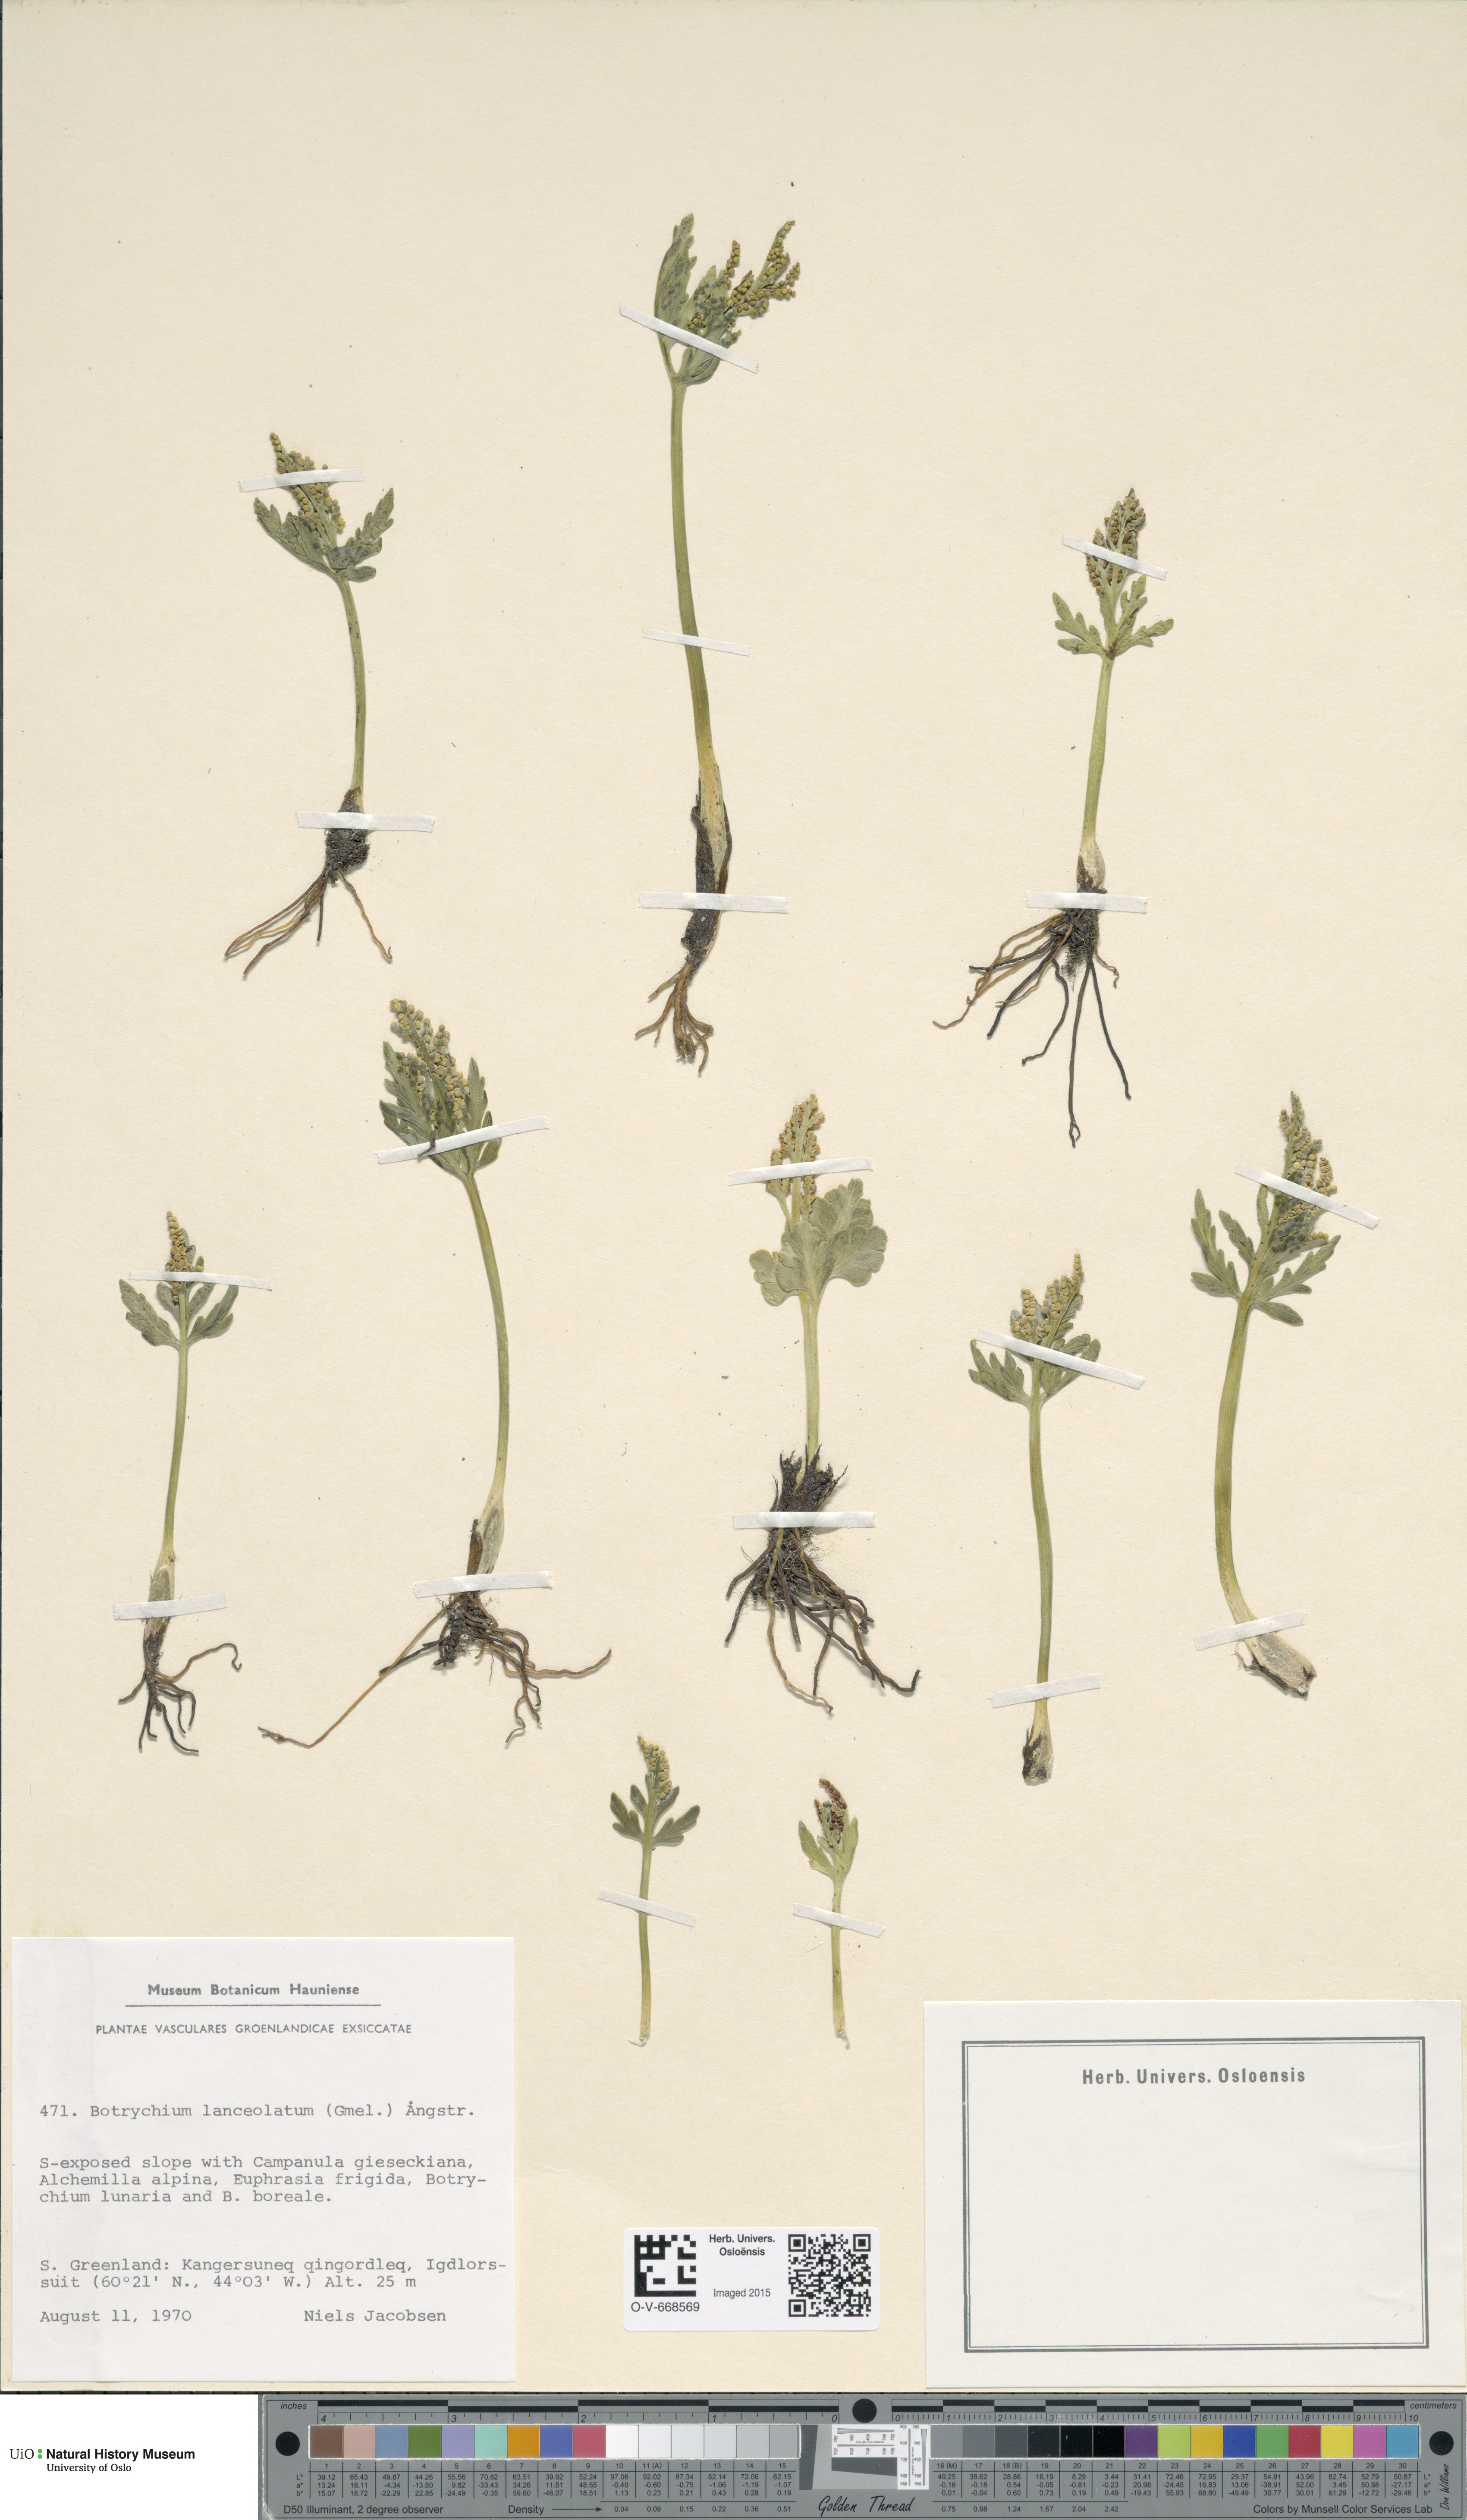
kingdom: Plantae
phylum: Tracheophyta
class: Polypodiopsida
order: Ophioglossales
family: Ophioglossaceae
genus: Botrychium
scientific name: Botrychium lanceolatum
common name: Lance-leaved moonwort
